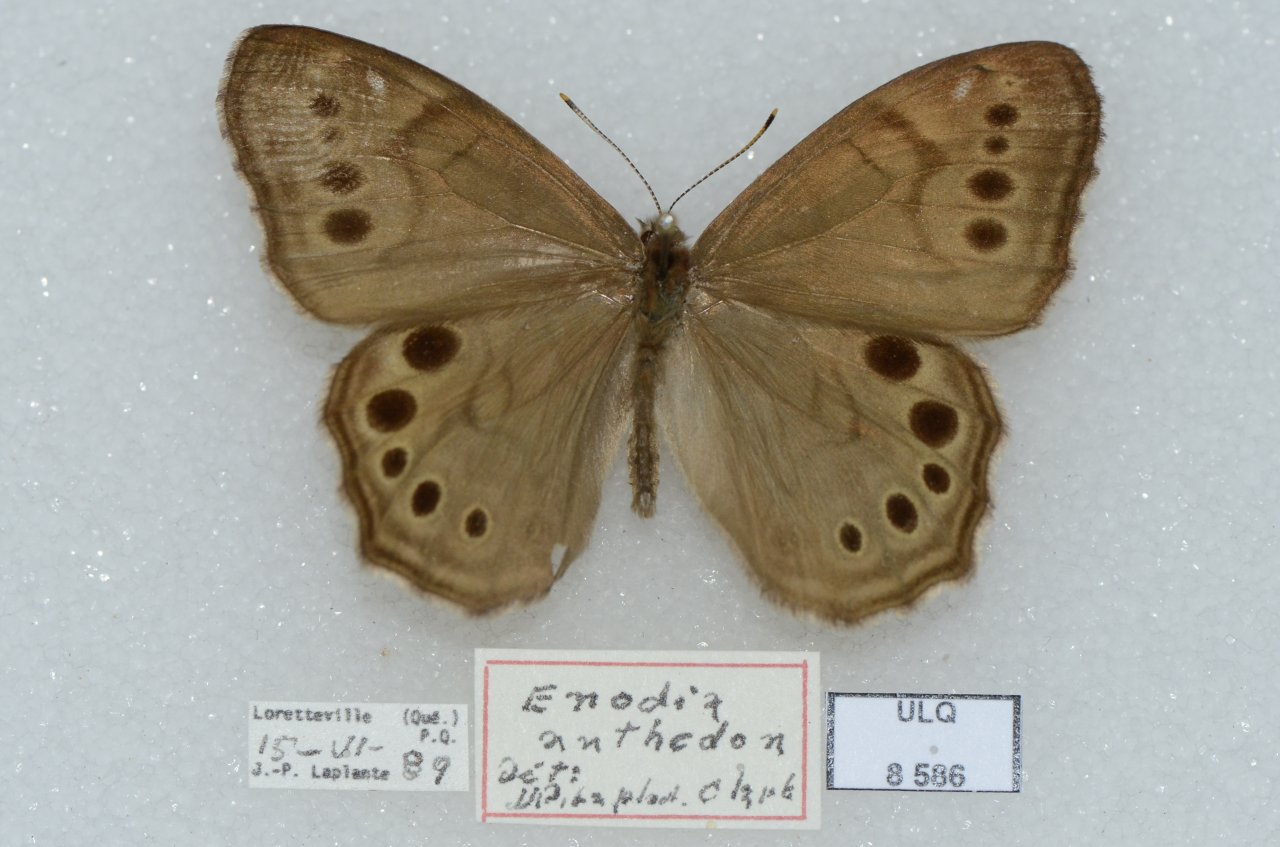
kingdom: Animalia
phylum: Arthropoda
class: Insecta
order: Lepidoptera
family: Nymphalidae
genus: Lethe
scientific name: Lethe anthedon
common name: Northern Pearly-Eye
